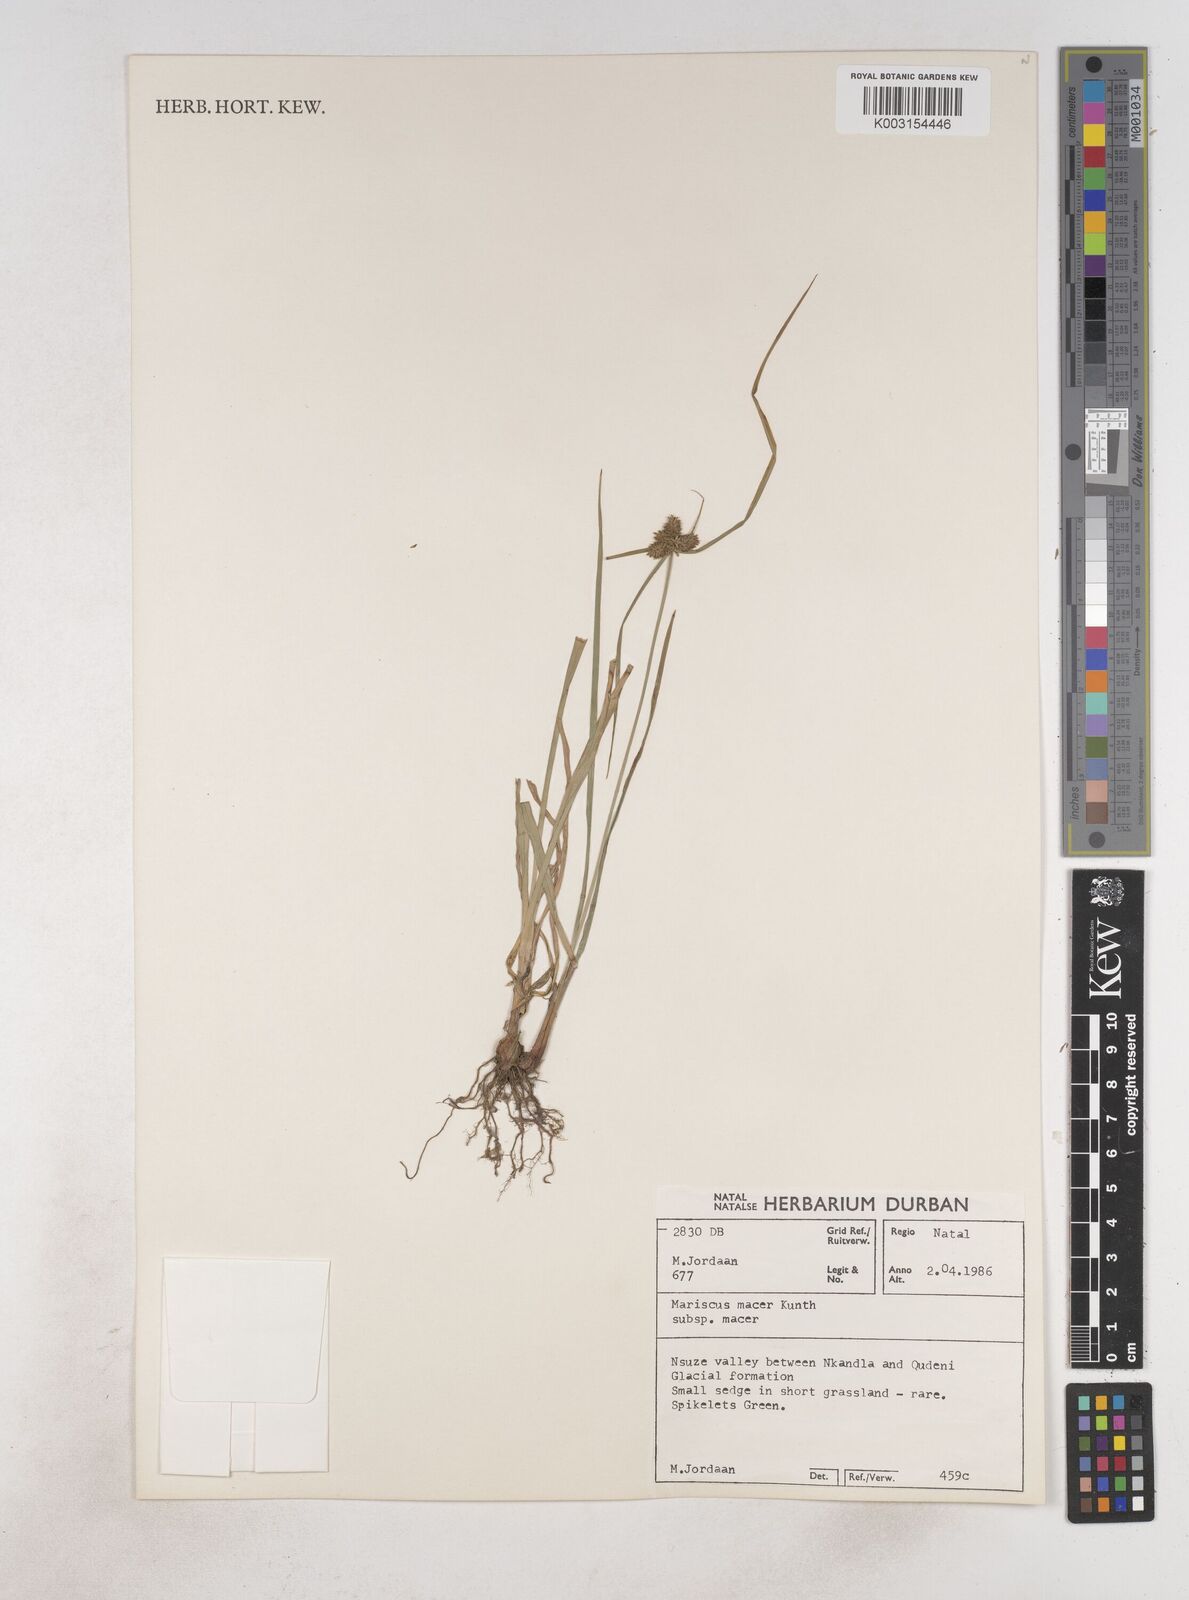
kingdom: Plantae
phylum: Tracheophyta
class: Liliopsida
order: Poales
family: Cyperaceae
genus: Cyperus
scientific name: Cyperus macrocarpus
